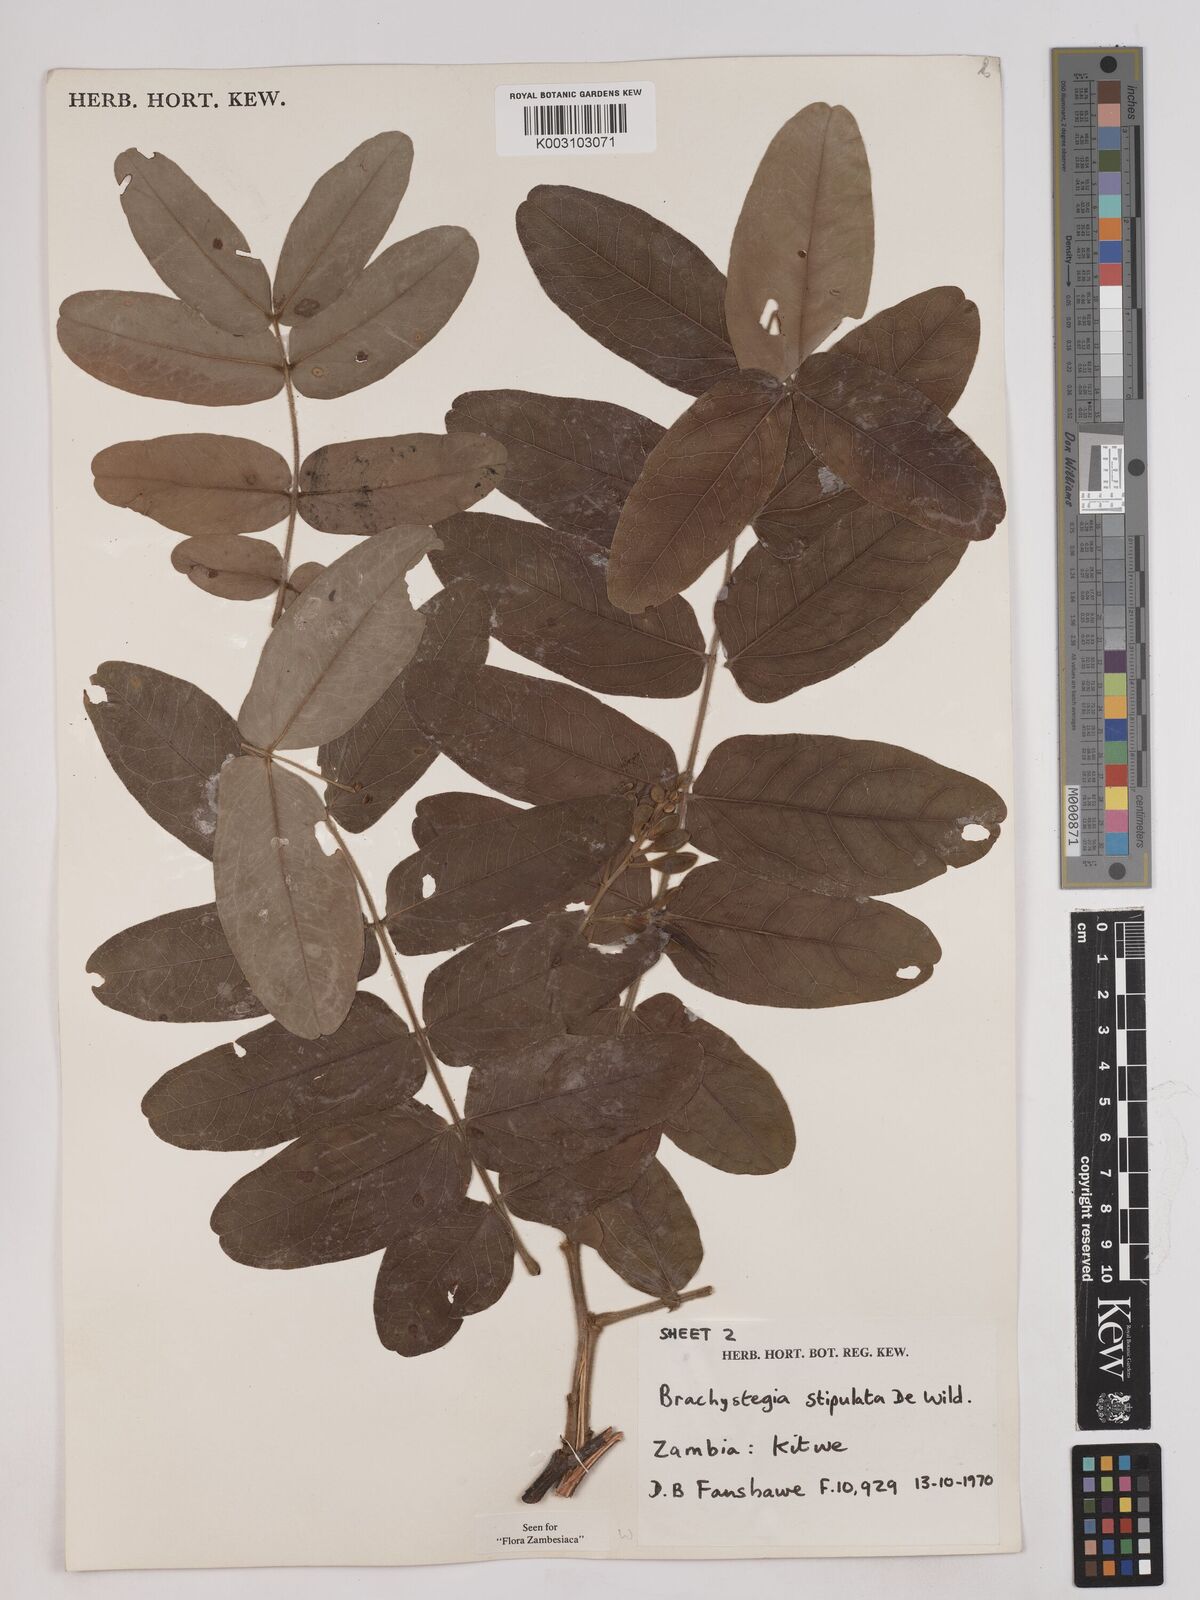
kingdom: Plantae
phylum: Tracheophyta
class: Magnoliopsida
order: Fabales
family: Fabaceae
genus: Brachystegia
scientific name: Brachystegia stipulata
